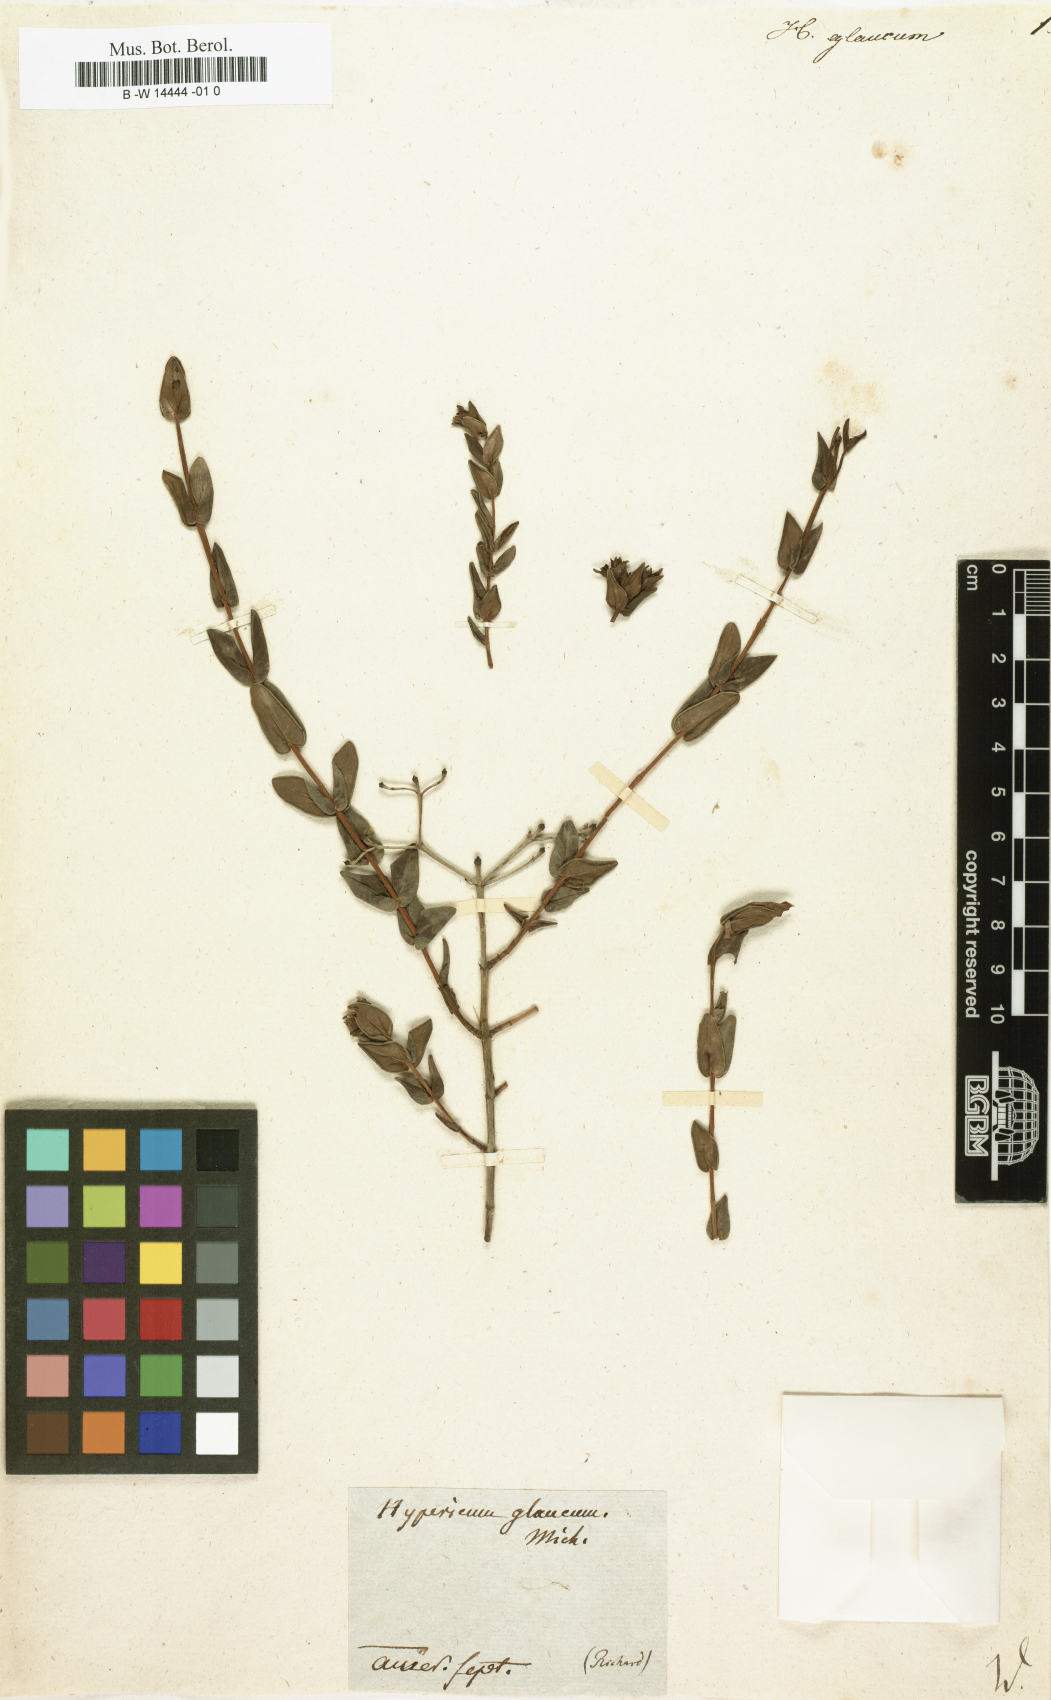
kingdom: Plantae
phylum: Tracheophyta
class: Magnoliopsida
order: Malpighiales
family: Hypericaceae
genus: Hypericum
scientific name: Hypericum myrtifolium
